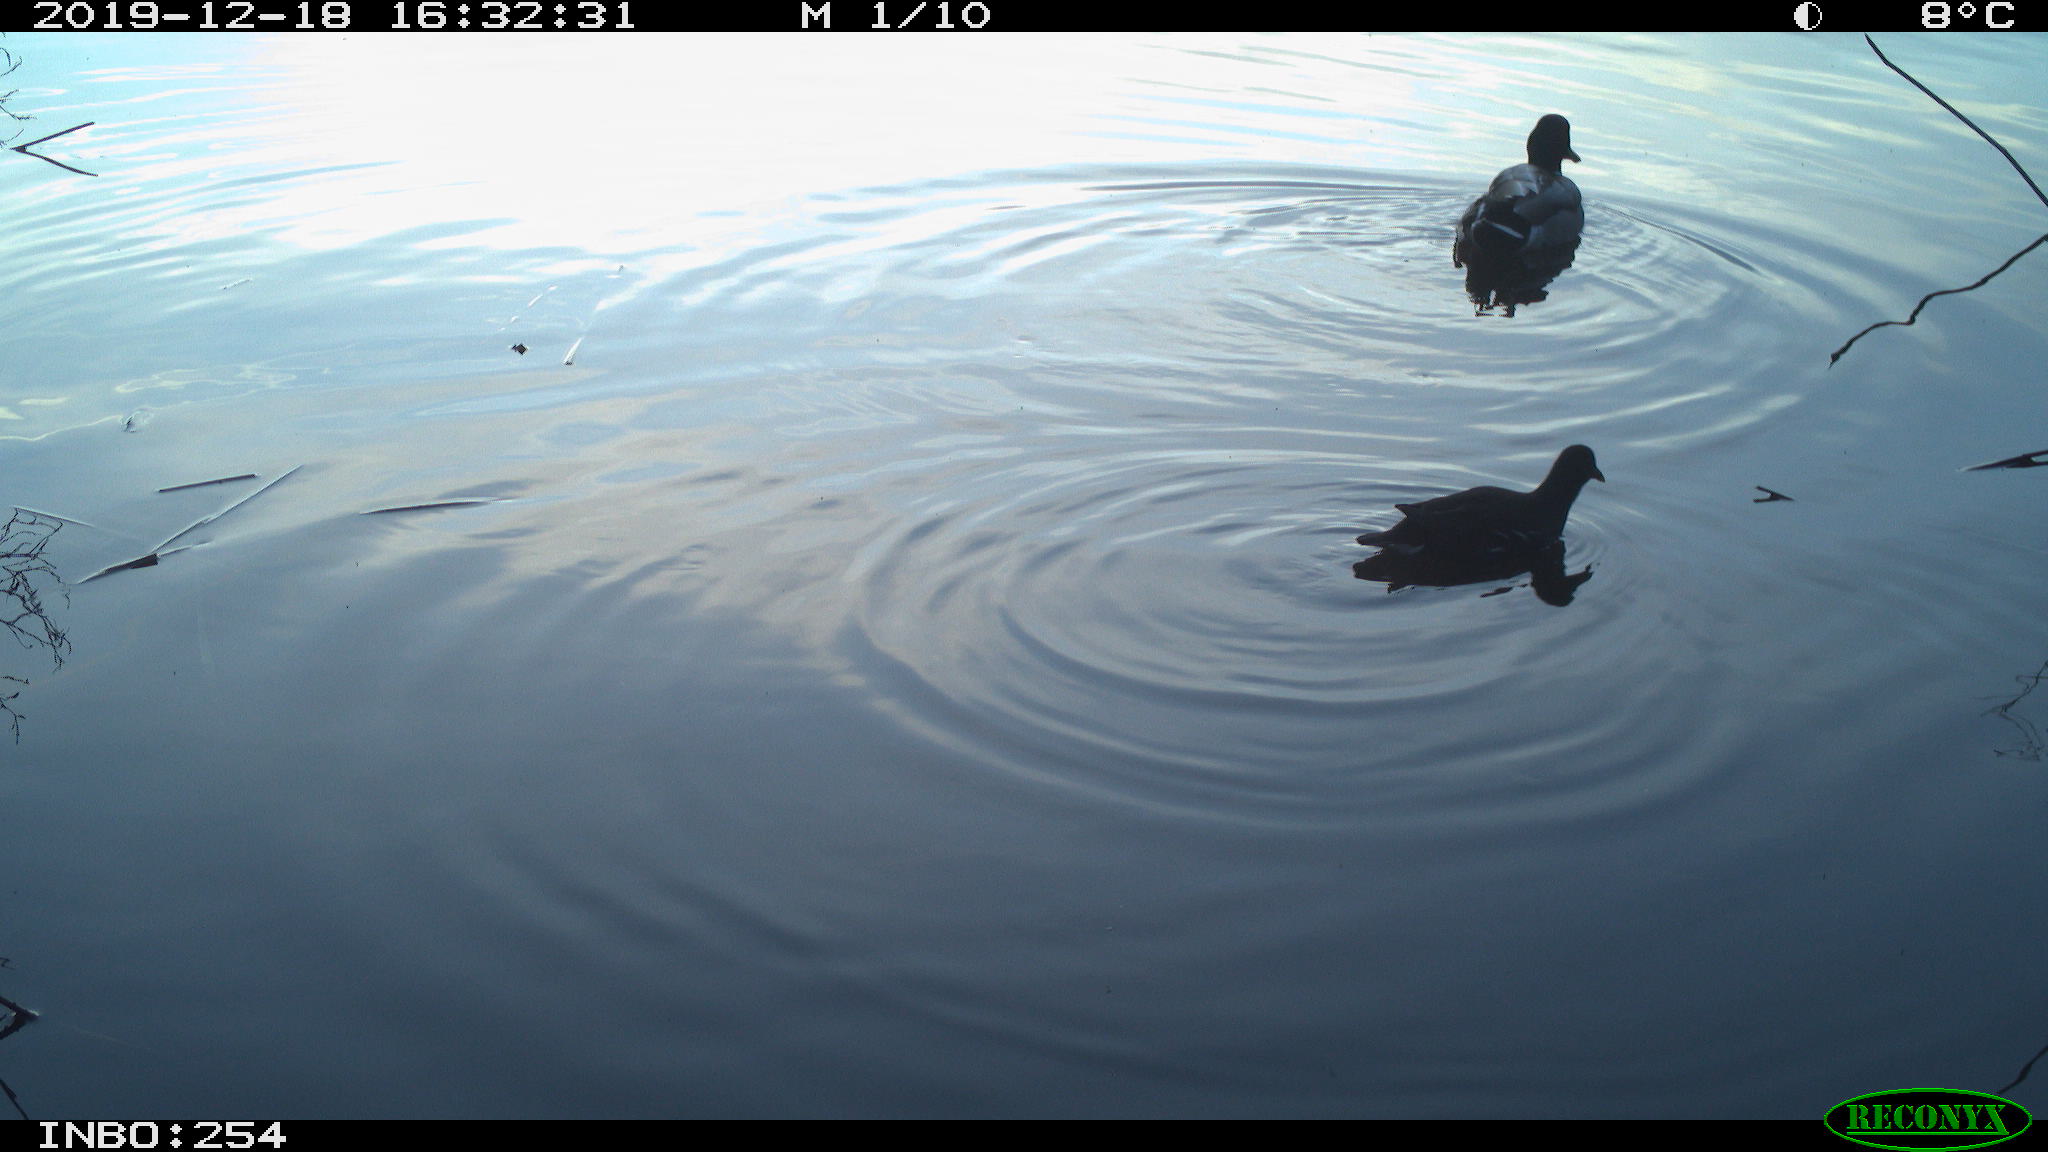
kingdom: Animalia
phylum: Chordata
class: Aves
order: Gruiformes
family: Rallidae
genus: Gallinula
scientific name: Gallinula chloropus
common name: Common moorhen
